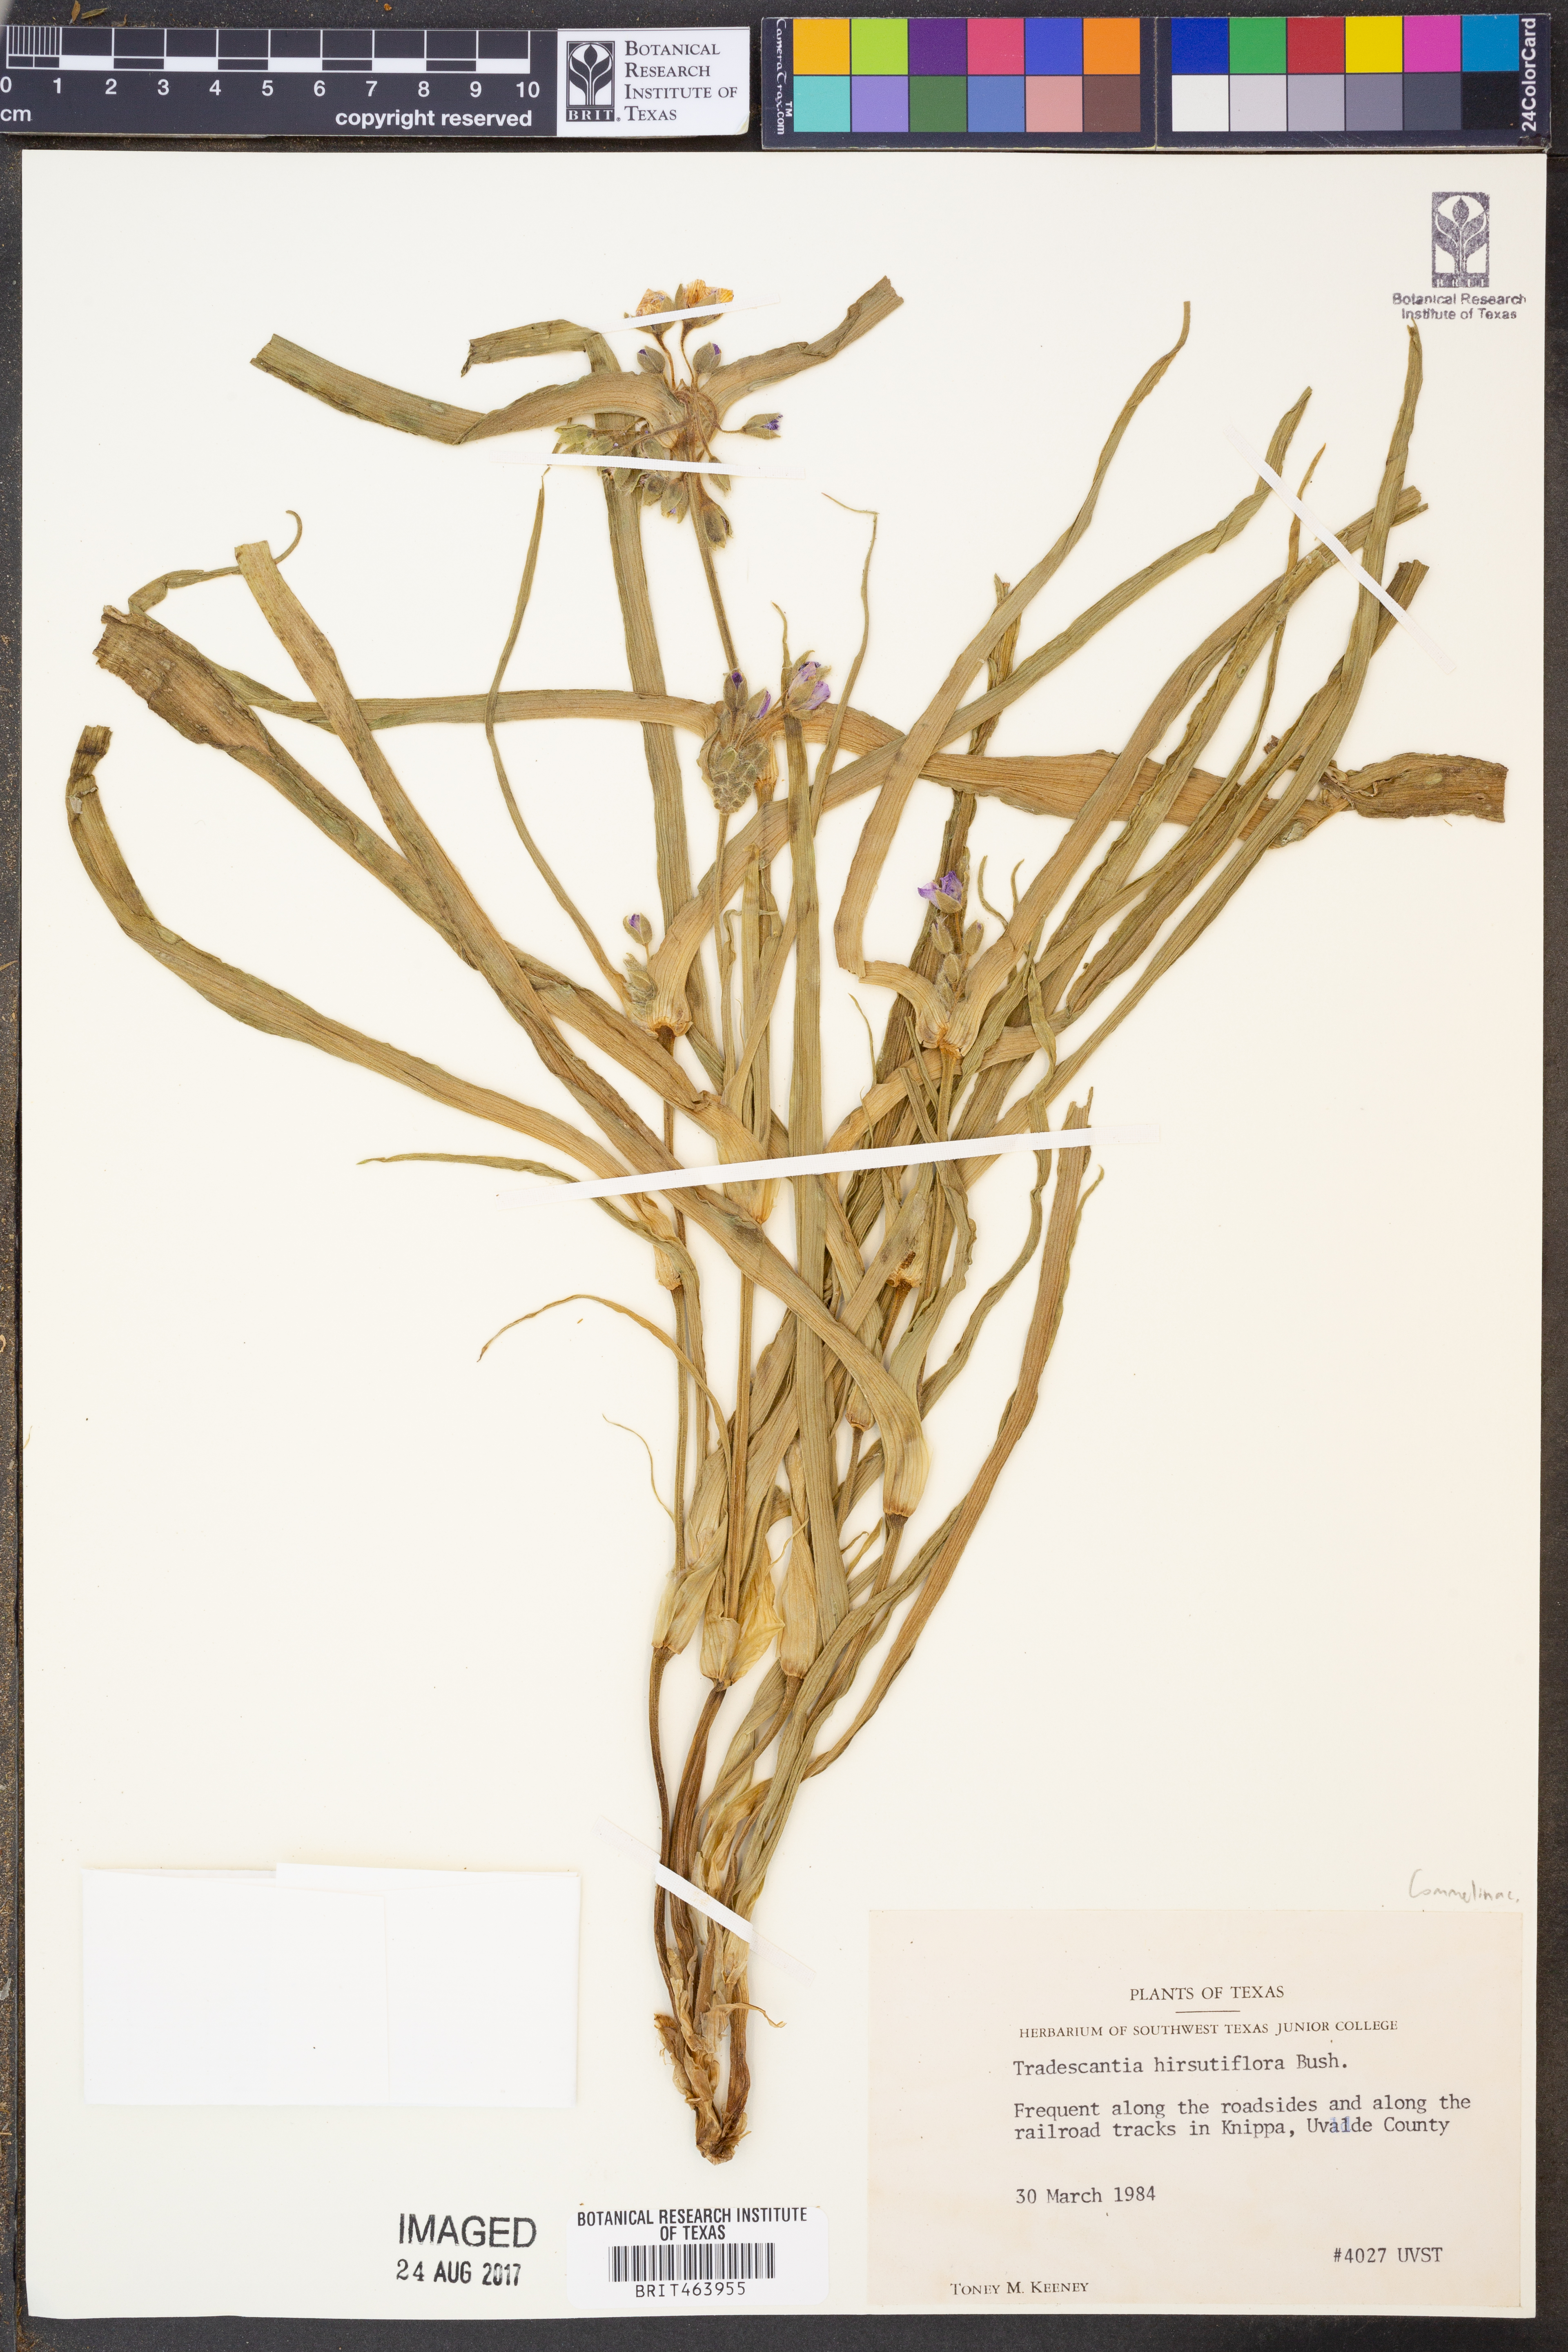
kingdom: Plantae
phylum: Tracheophyta
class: Liliopsida
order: Commelinales
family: Commelinaceae
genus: Tradescantia
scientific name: Tradescantia hirsutiflora
